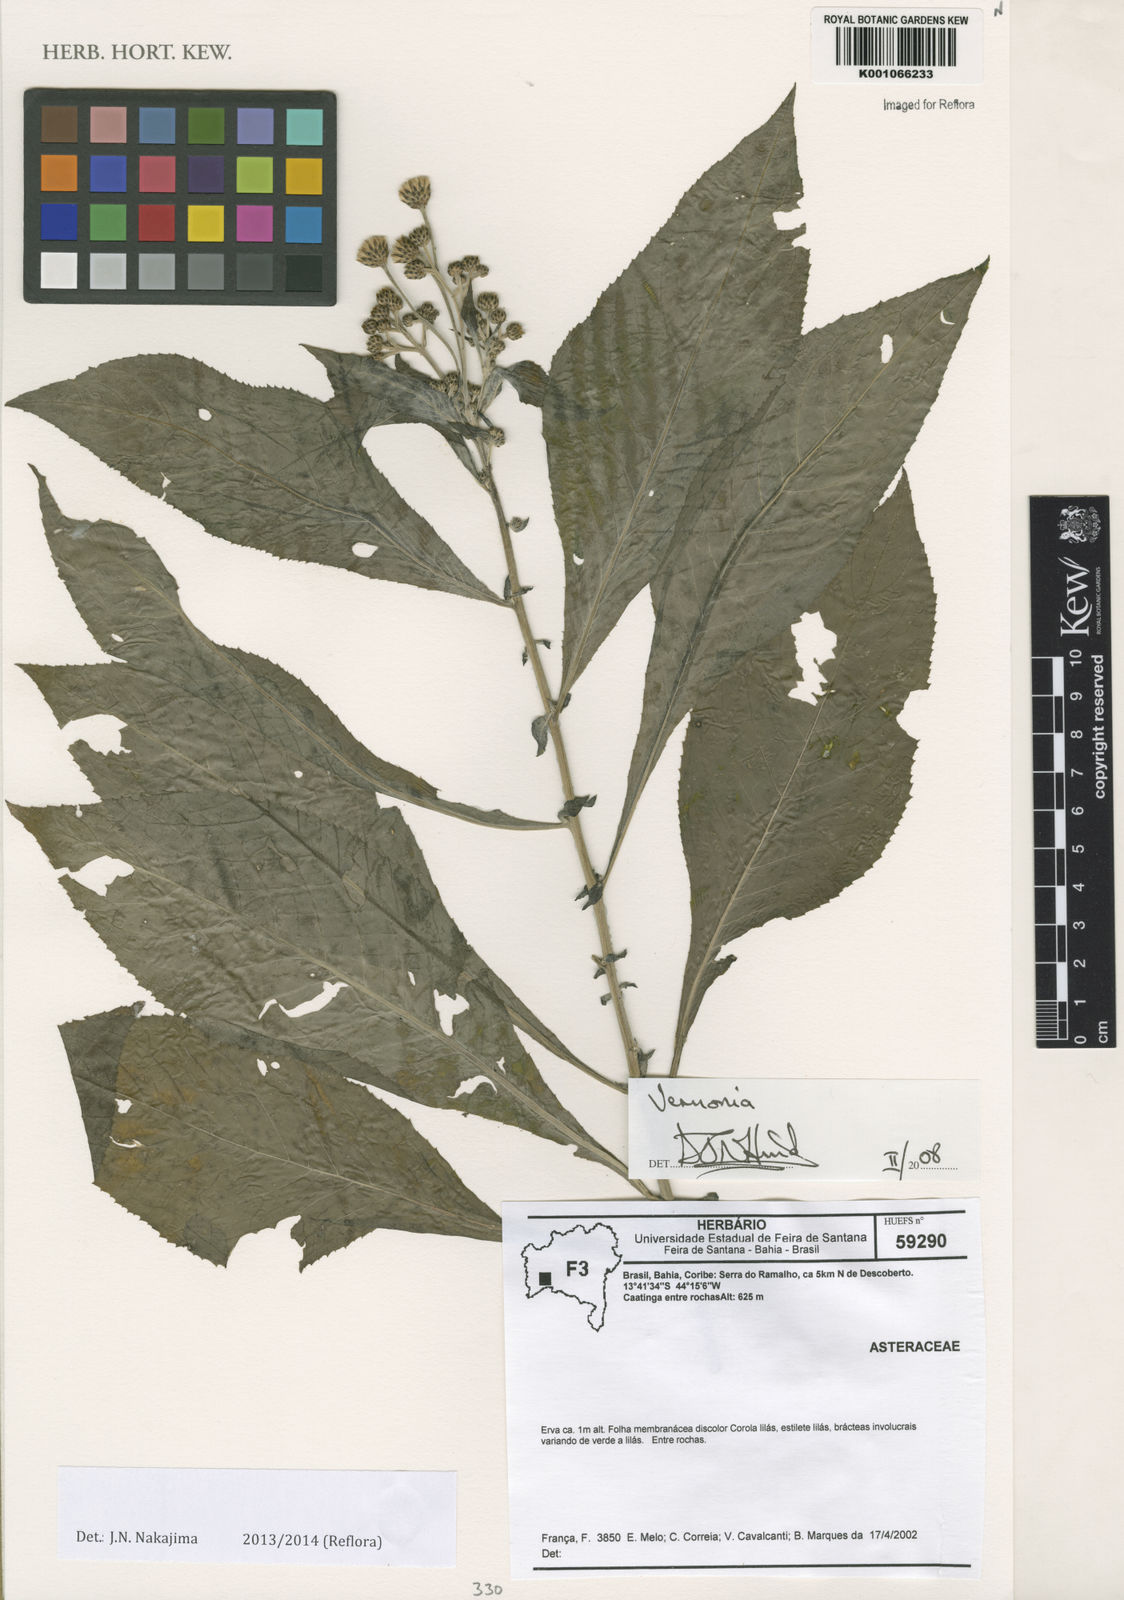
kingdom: Plantae
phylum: Tracheophyta
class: Magnoliopsida
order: Asterales
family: Asteraceae
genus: Vernonia
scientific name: Vernonia
